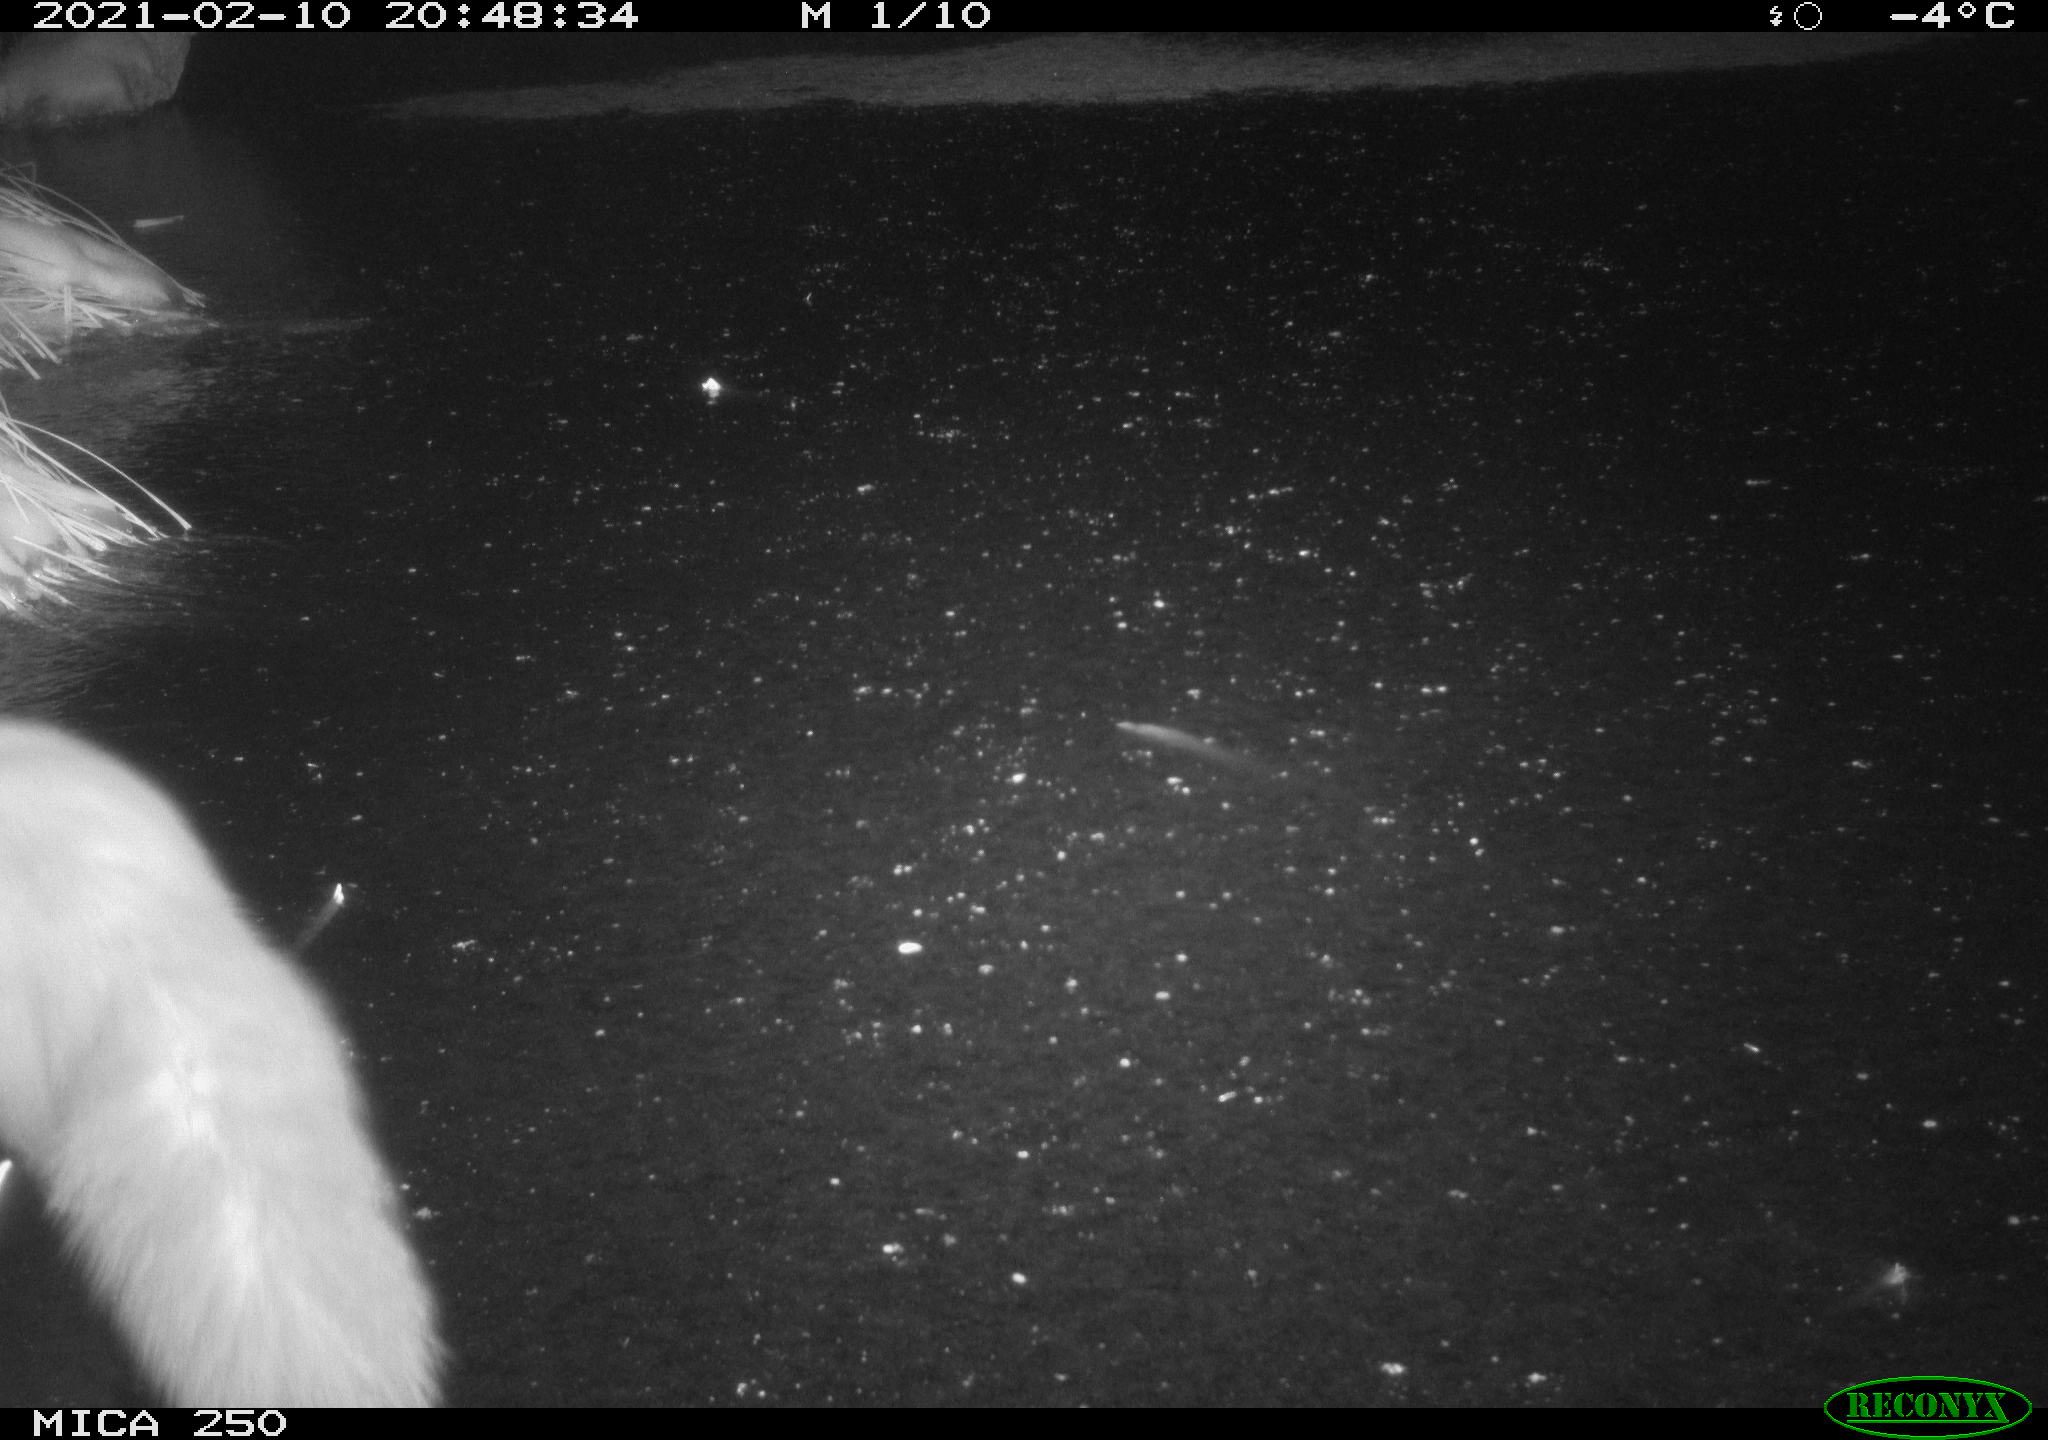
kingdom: Animalia
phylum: Chordata
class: Mammalia
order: Carnivora
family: Mustelidae
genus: Martes
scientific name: Martes foina
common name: Beech marten
